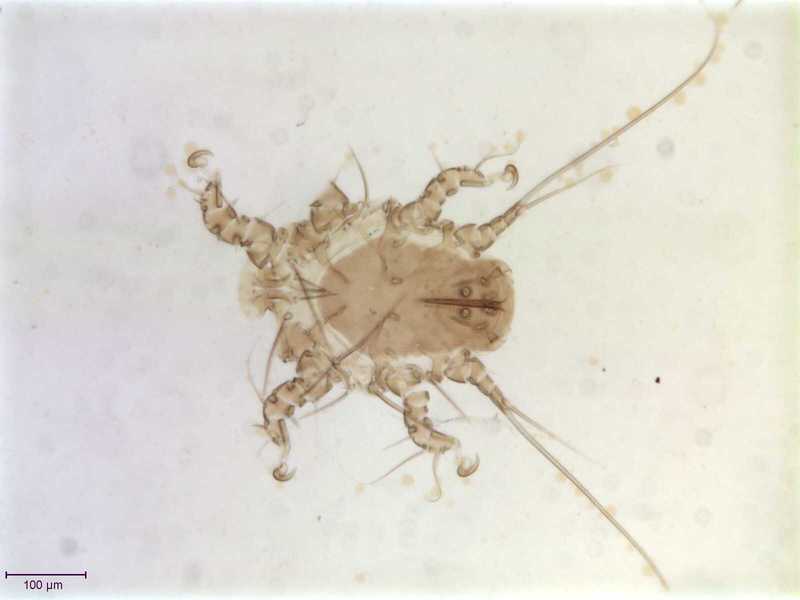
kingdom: Animalia
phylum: Arthropoda
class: Arachnida
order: Sarcoptiformes
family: Chaetodactylidae
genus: Sennertia
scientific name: Sennertia horrida
